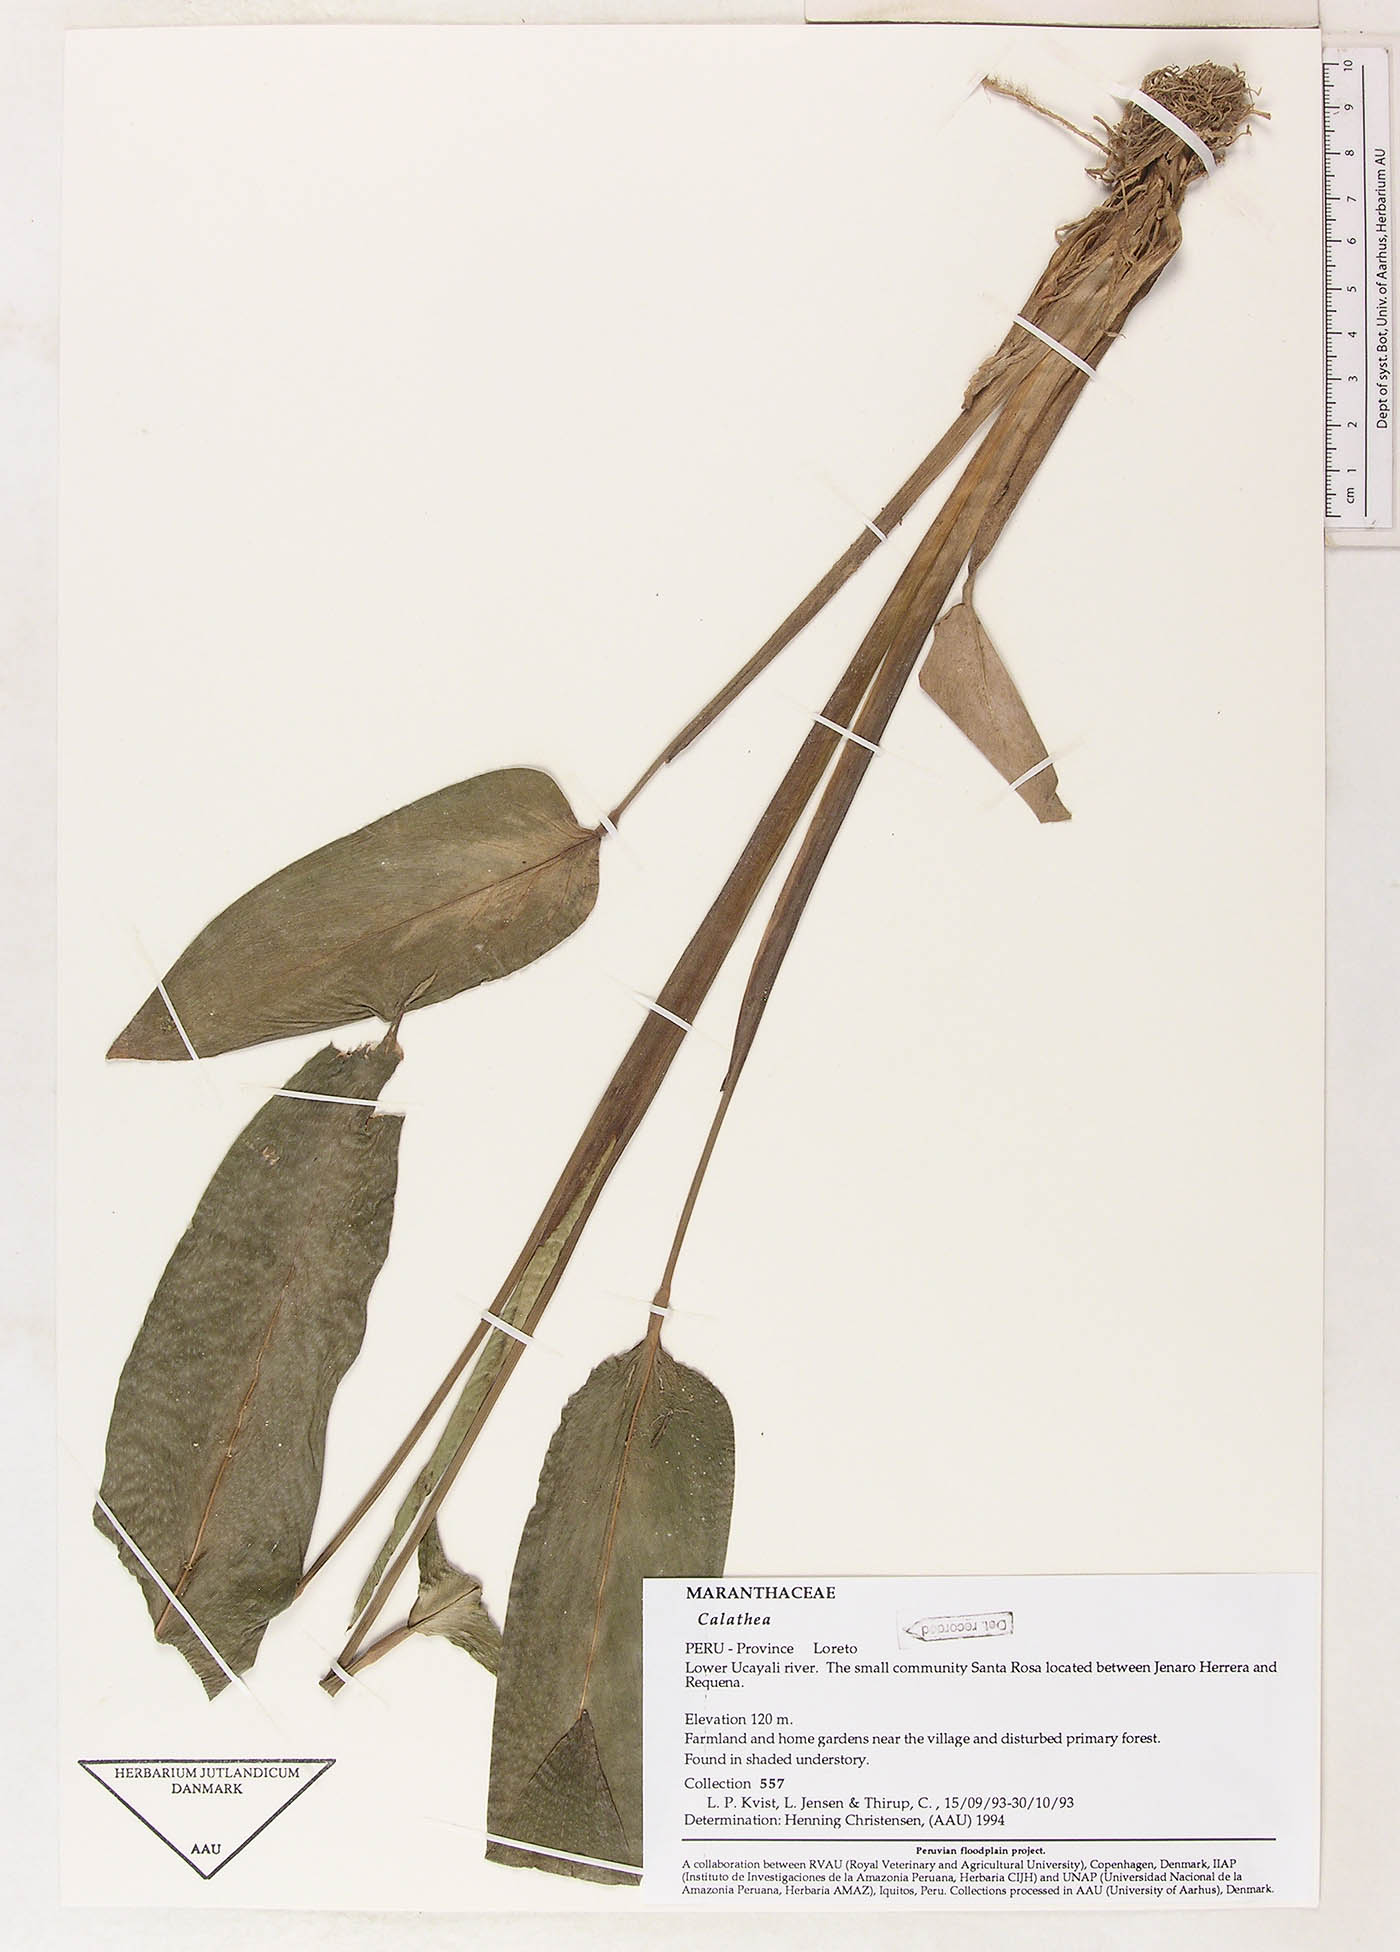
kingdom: Plantae
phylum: Tracheophyta
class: Magnoliopsida
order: Laurales
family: Lauraceae
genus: Goeppertia
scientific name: Goeppertia
